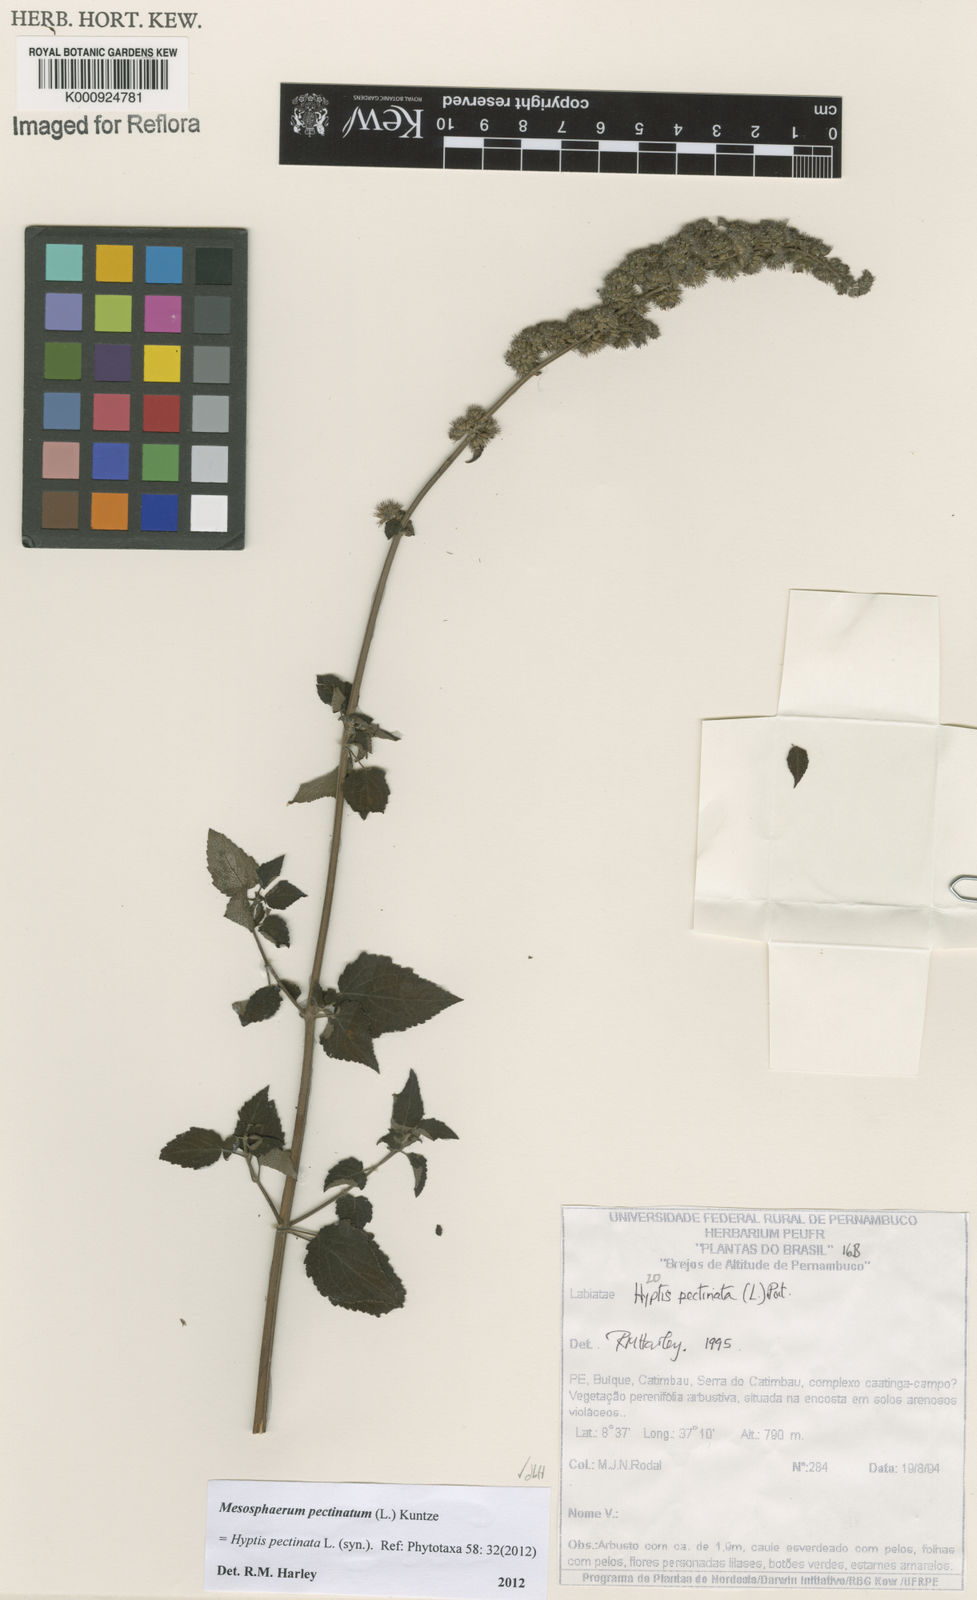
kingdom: Plantae
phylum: Tracheophyta
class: Magnoliopsida
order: Lamiales
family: Lamiaceae
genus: Mesosphaerum
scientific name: Mesosphaerum pectinatum
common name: Comb hyptis
